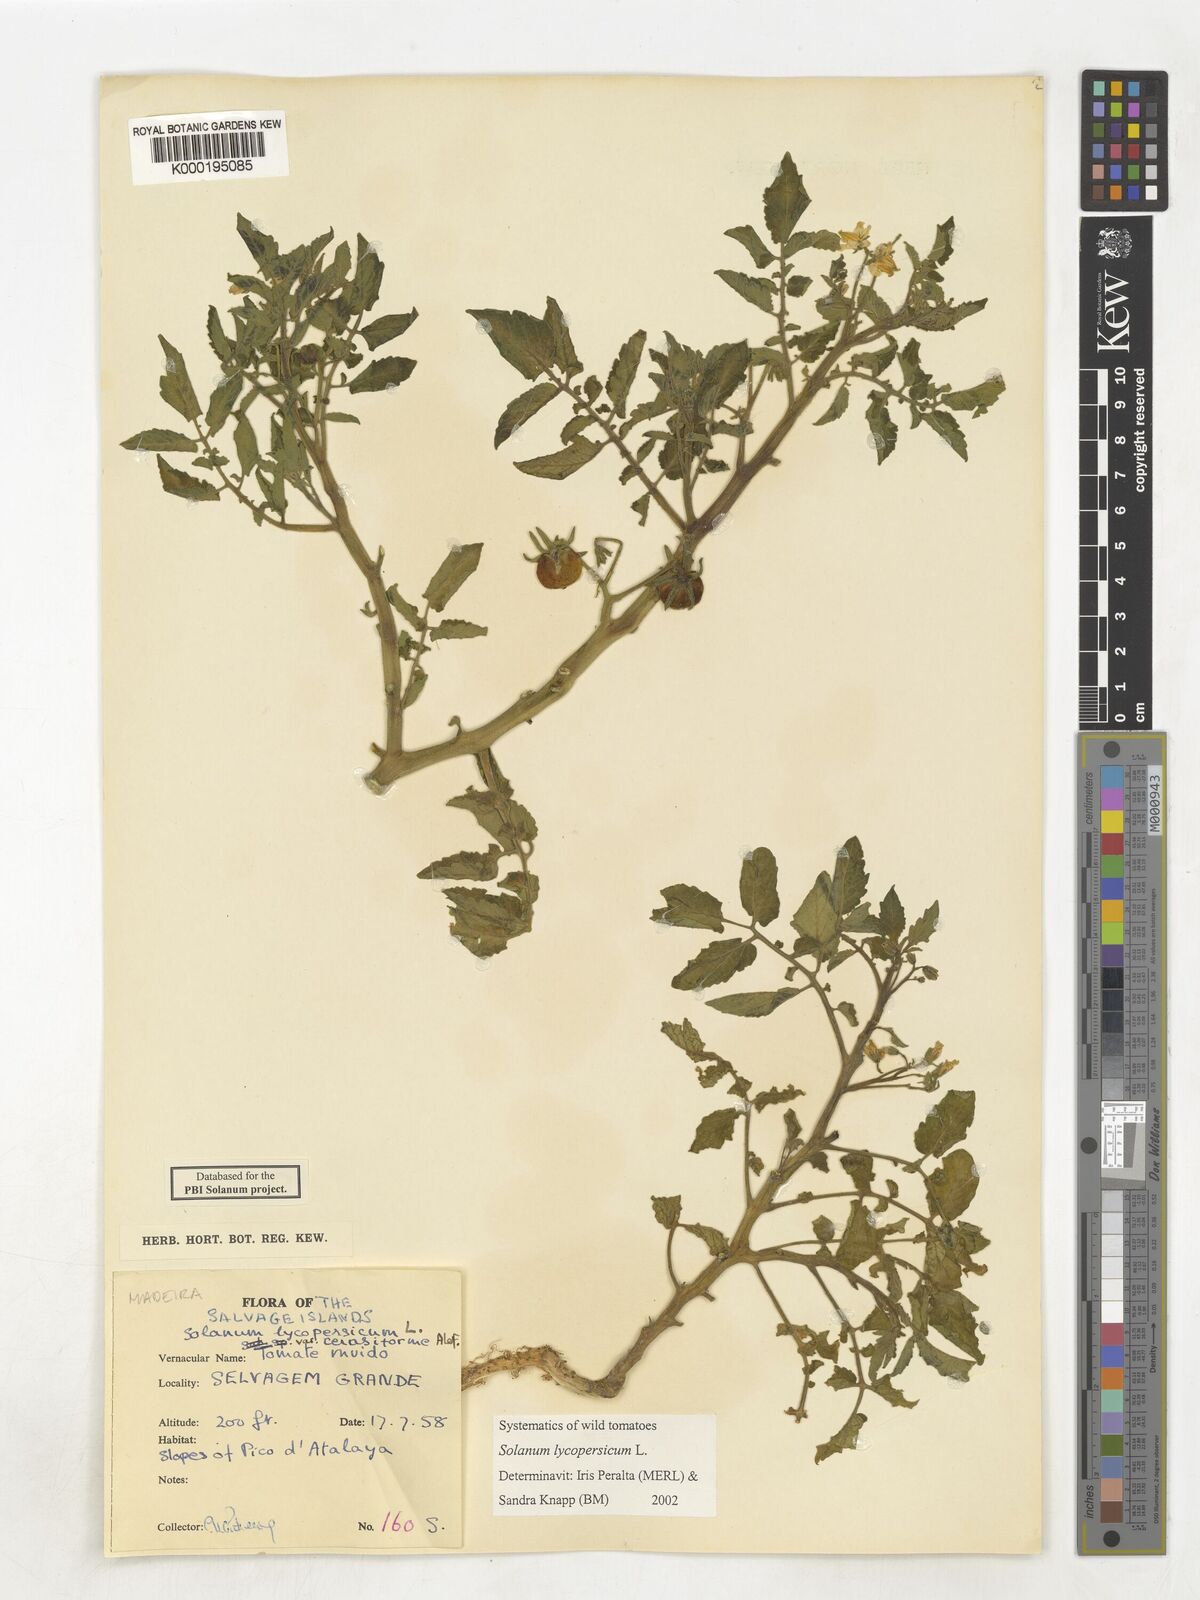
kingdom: Plantae
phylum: Tracheophyta
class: Magnoliopsida
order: Solanales
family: Solanaceae
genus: Solanum
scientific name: Solanum lycopersicum
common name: Garden tomato
